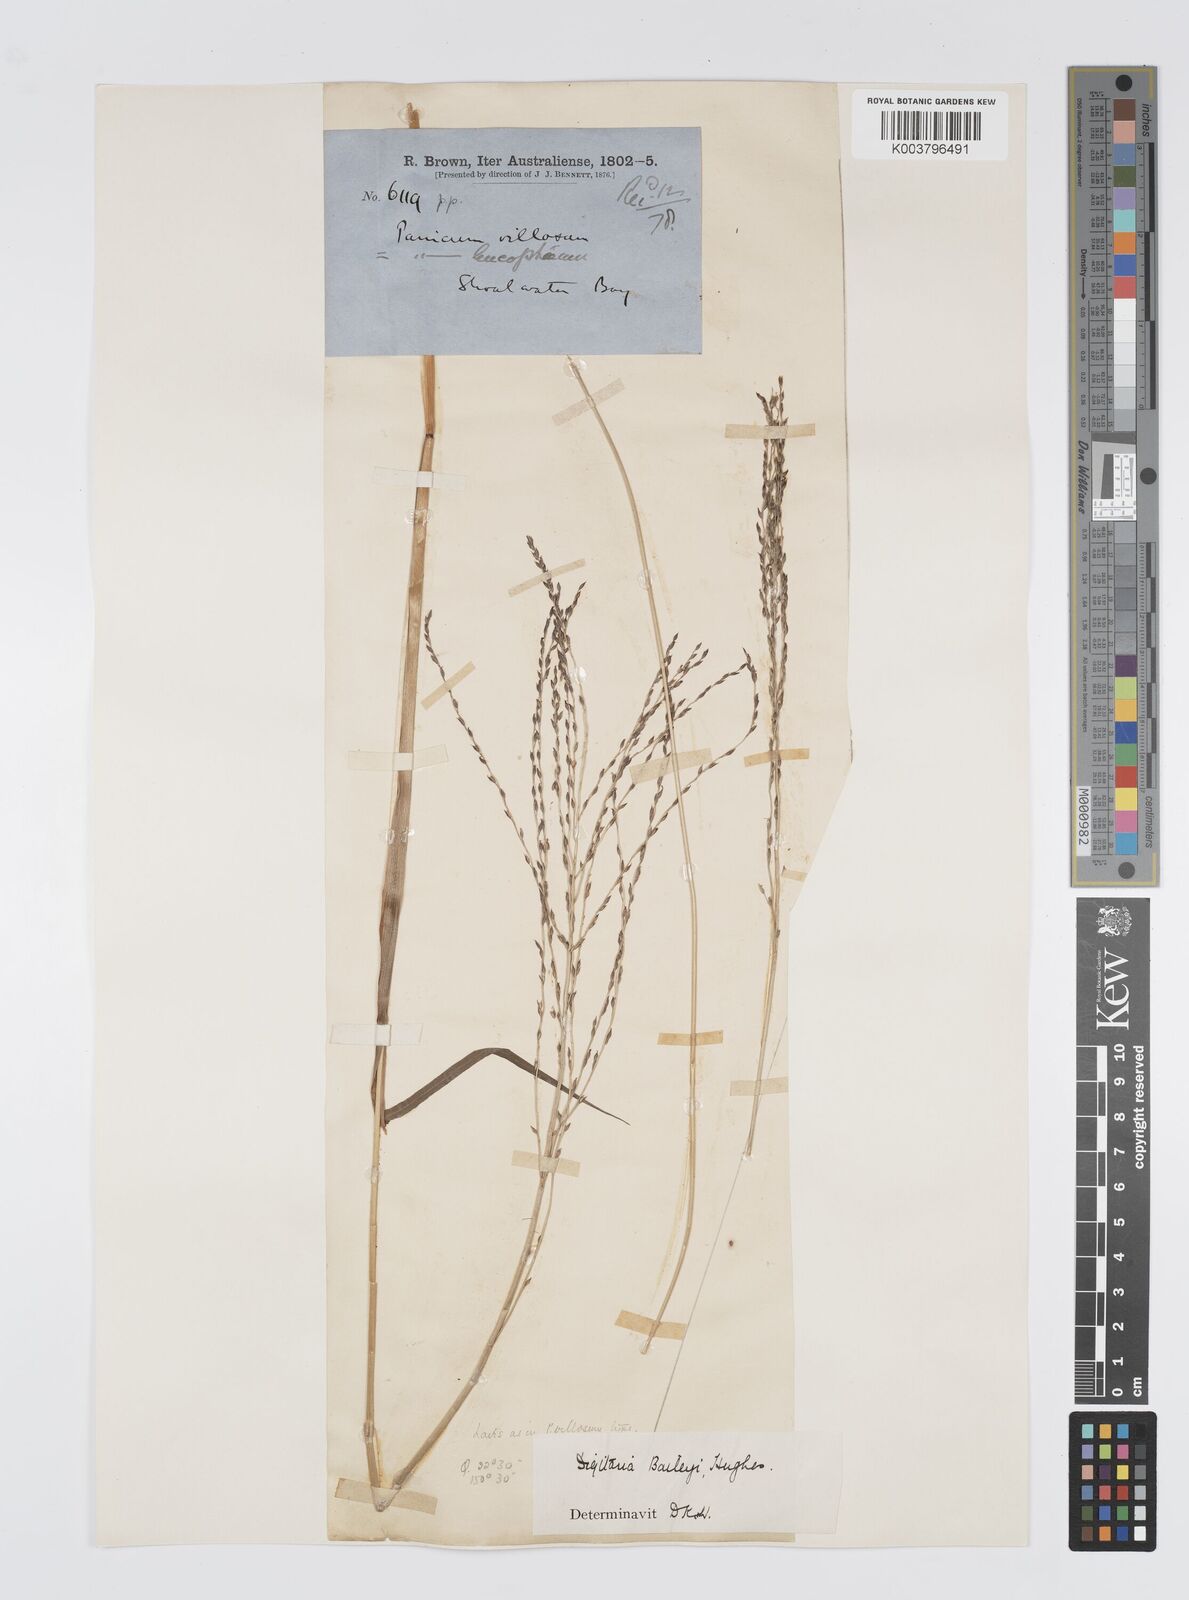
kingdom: Plantae
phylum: Tracheophyta
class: Liliopsida
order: Poales
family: Poaceae
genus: Digitaria
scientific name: Digitaria baileyi
